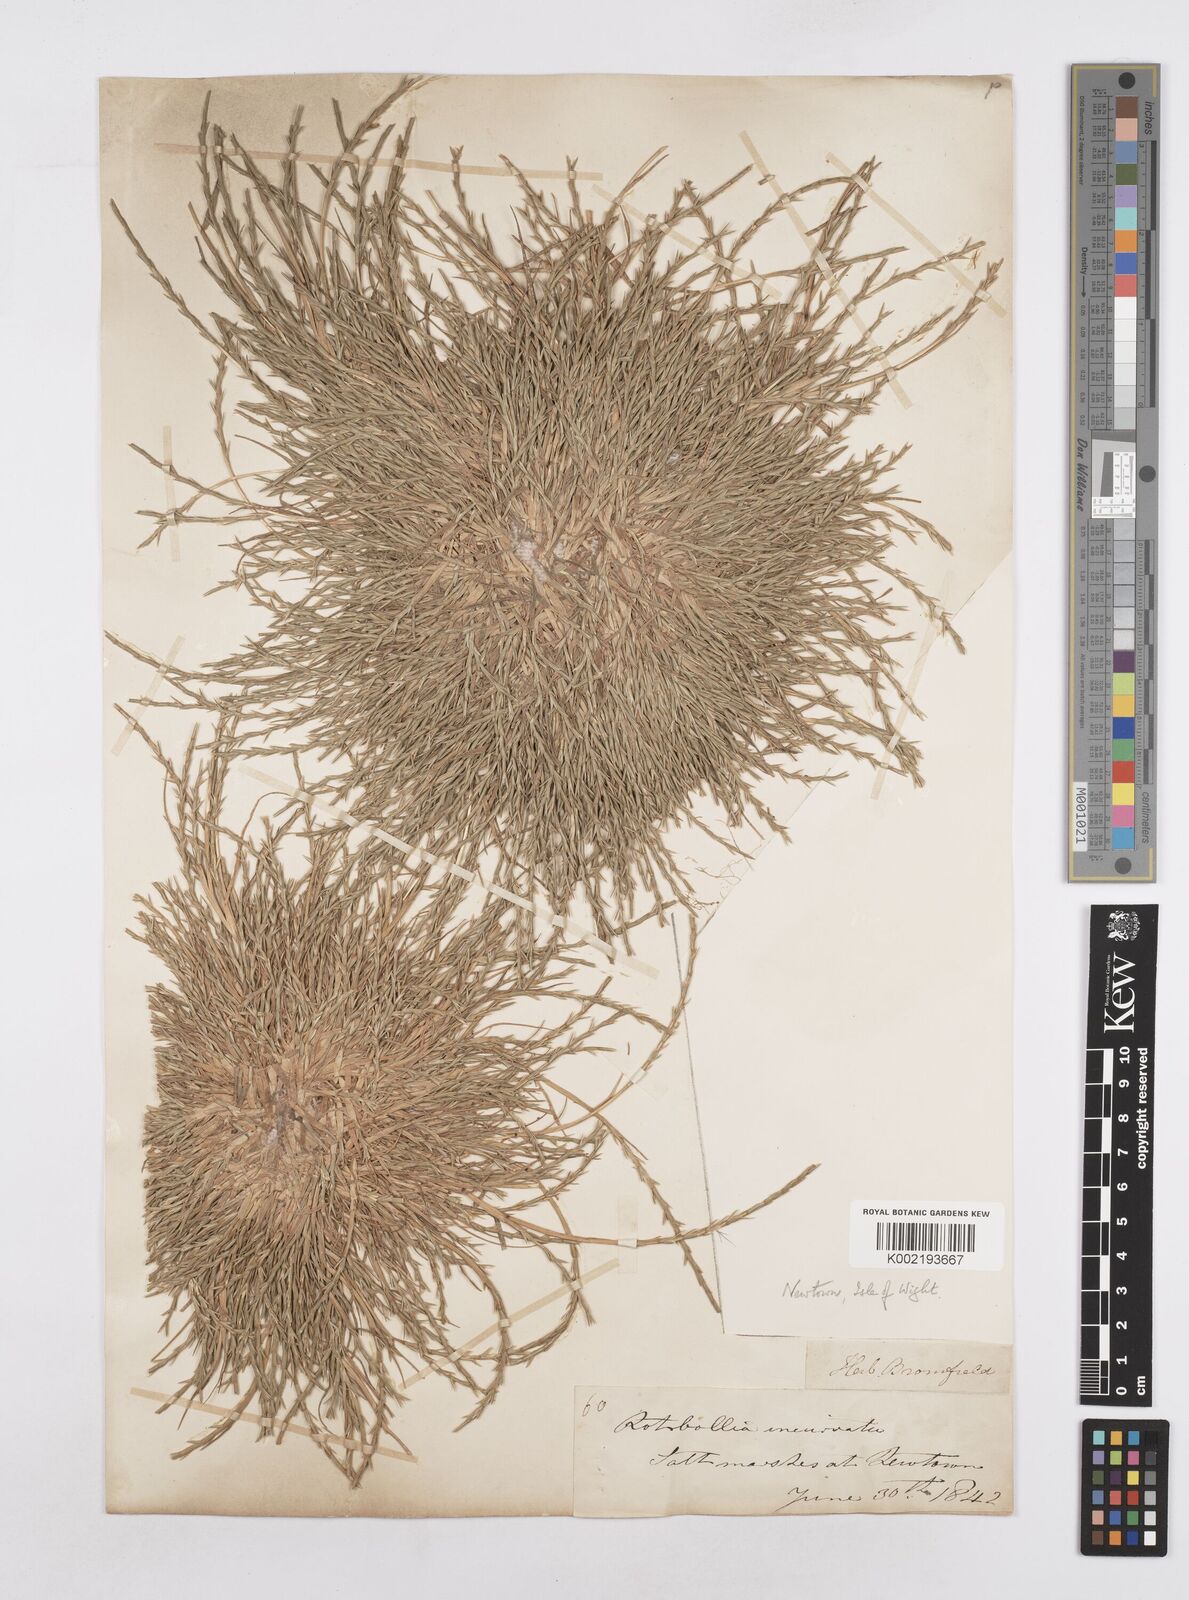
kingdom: Plantae
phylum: Tracheophyta
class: Liliopsida
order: Poales
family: Poaceae
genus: Parapholis
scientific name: Parapholis strigosa
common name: Hard-grass
